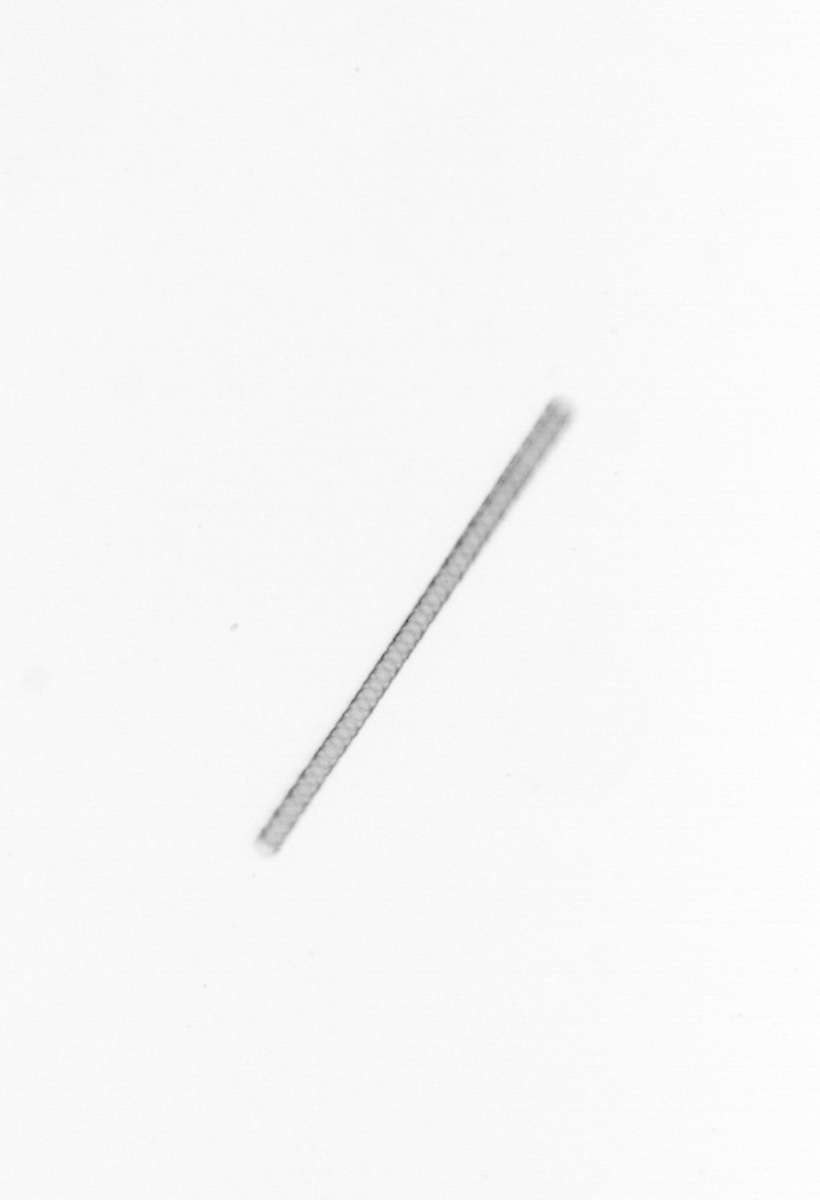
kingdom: Chromista
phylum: Ochrophyta
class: Bacillariophyceae
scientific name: Bacillariophyceae
